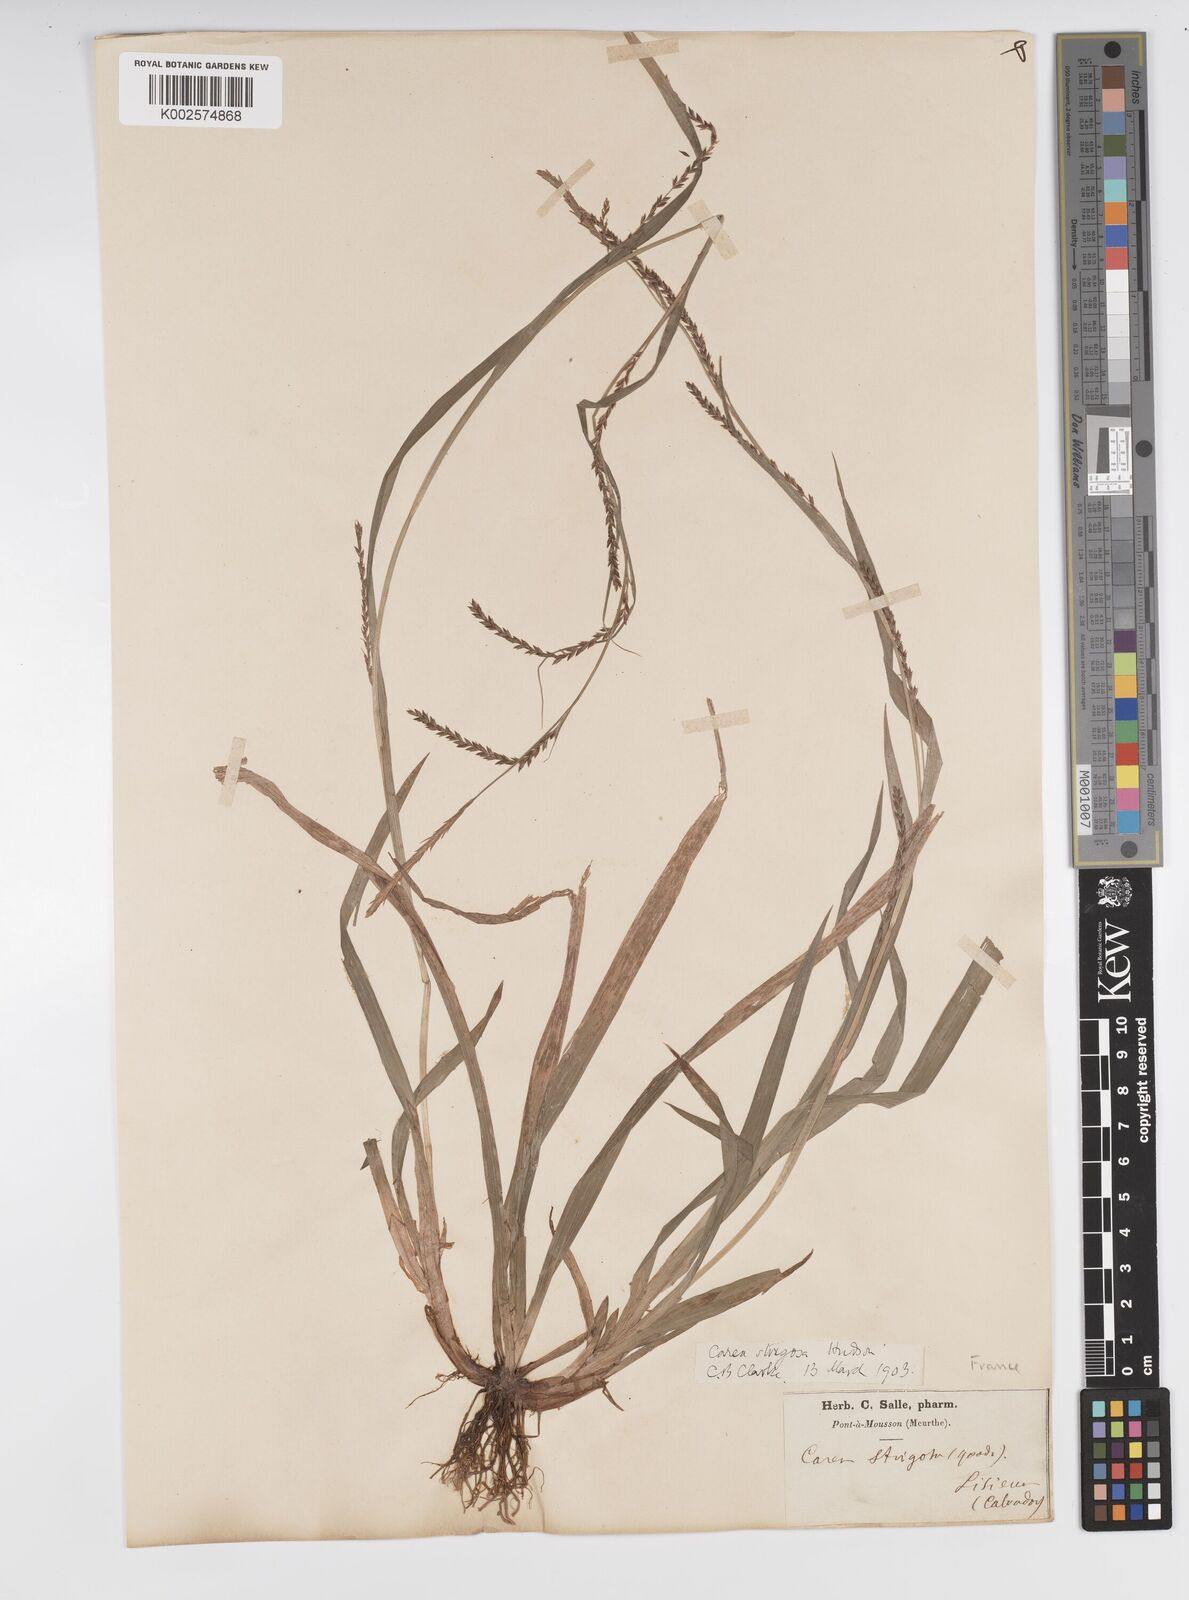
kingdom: Plantae
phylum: Tracheophyta
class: Liliopsida
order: Poales
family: Cyperaceae
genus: Carex
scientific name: Carex strigosa
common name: Thin-spiked wood-sedge
